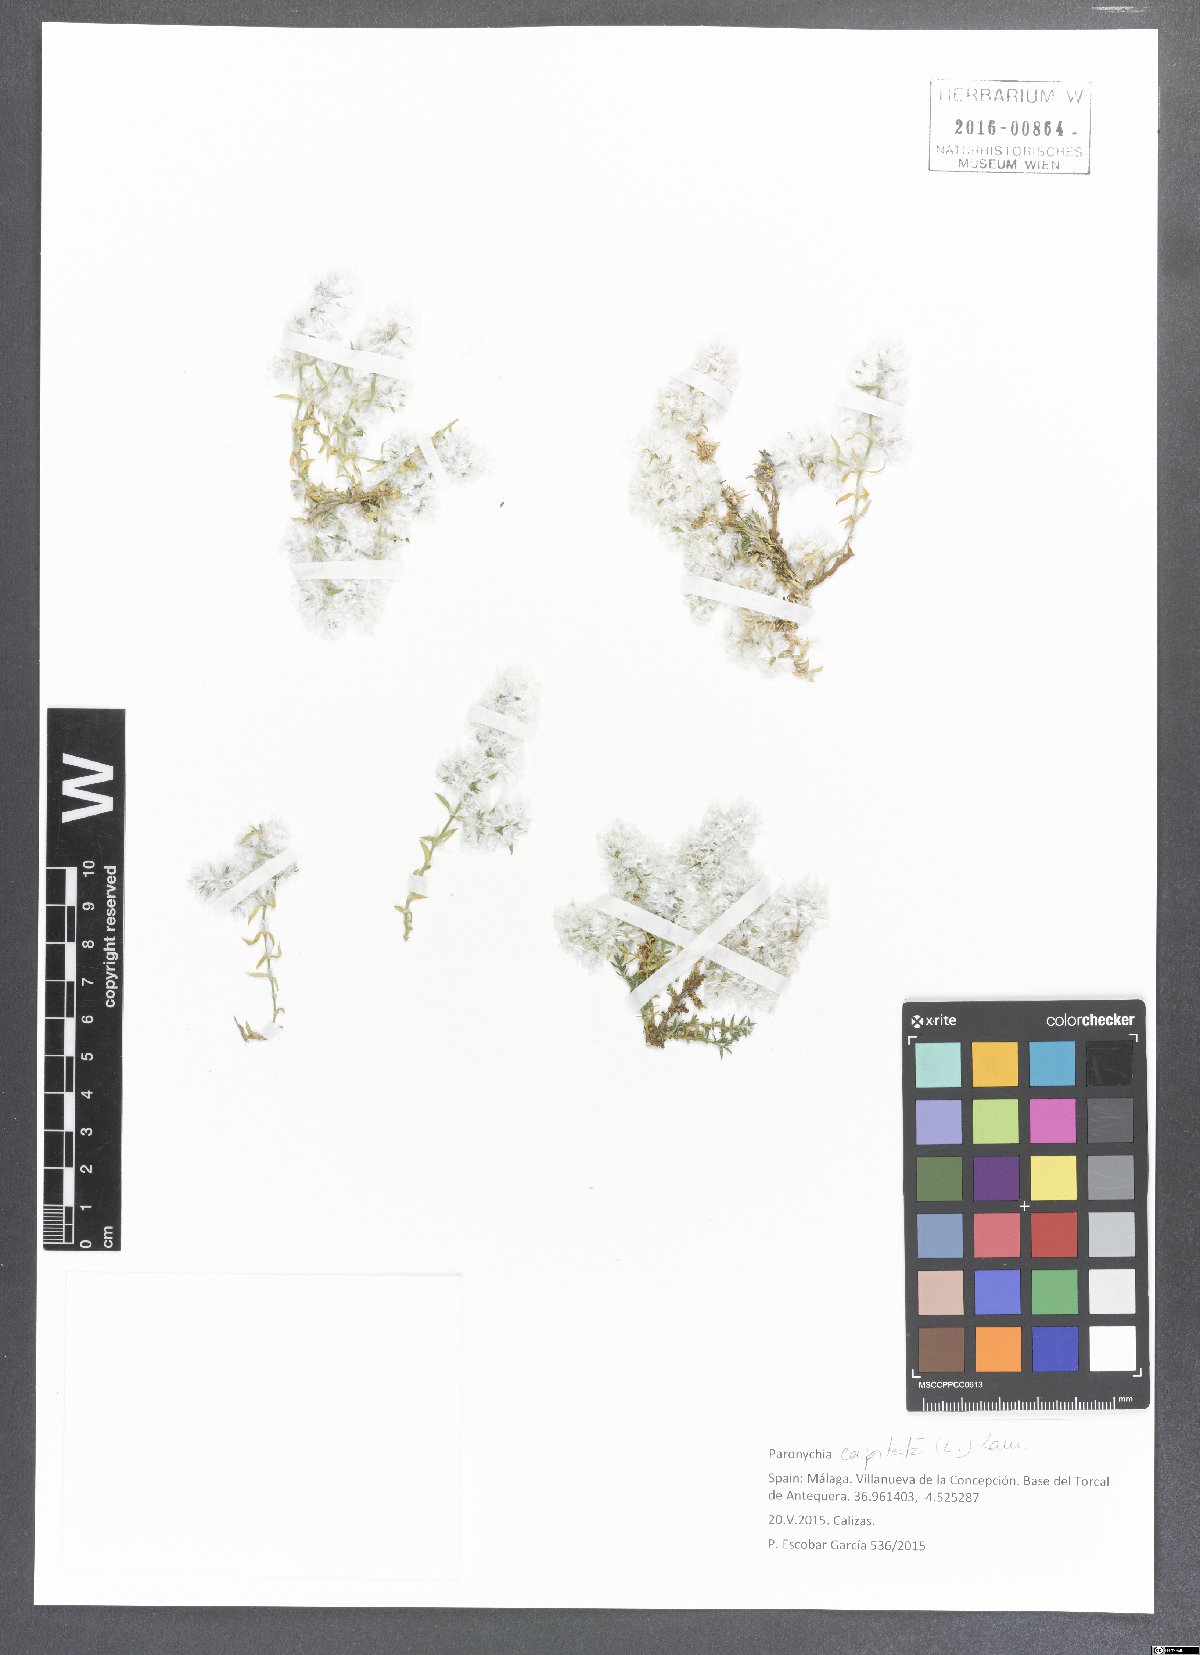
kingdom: Plantae
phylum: Tracheophyta
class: Magnoliopsida
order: Caryophyllales
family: Caryophyllaceae
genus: Paronychia
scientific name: Paronychia capitata
